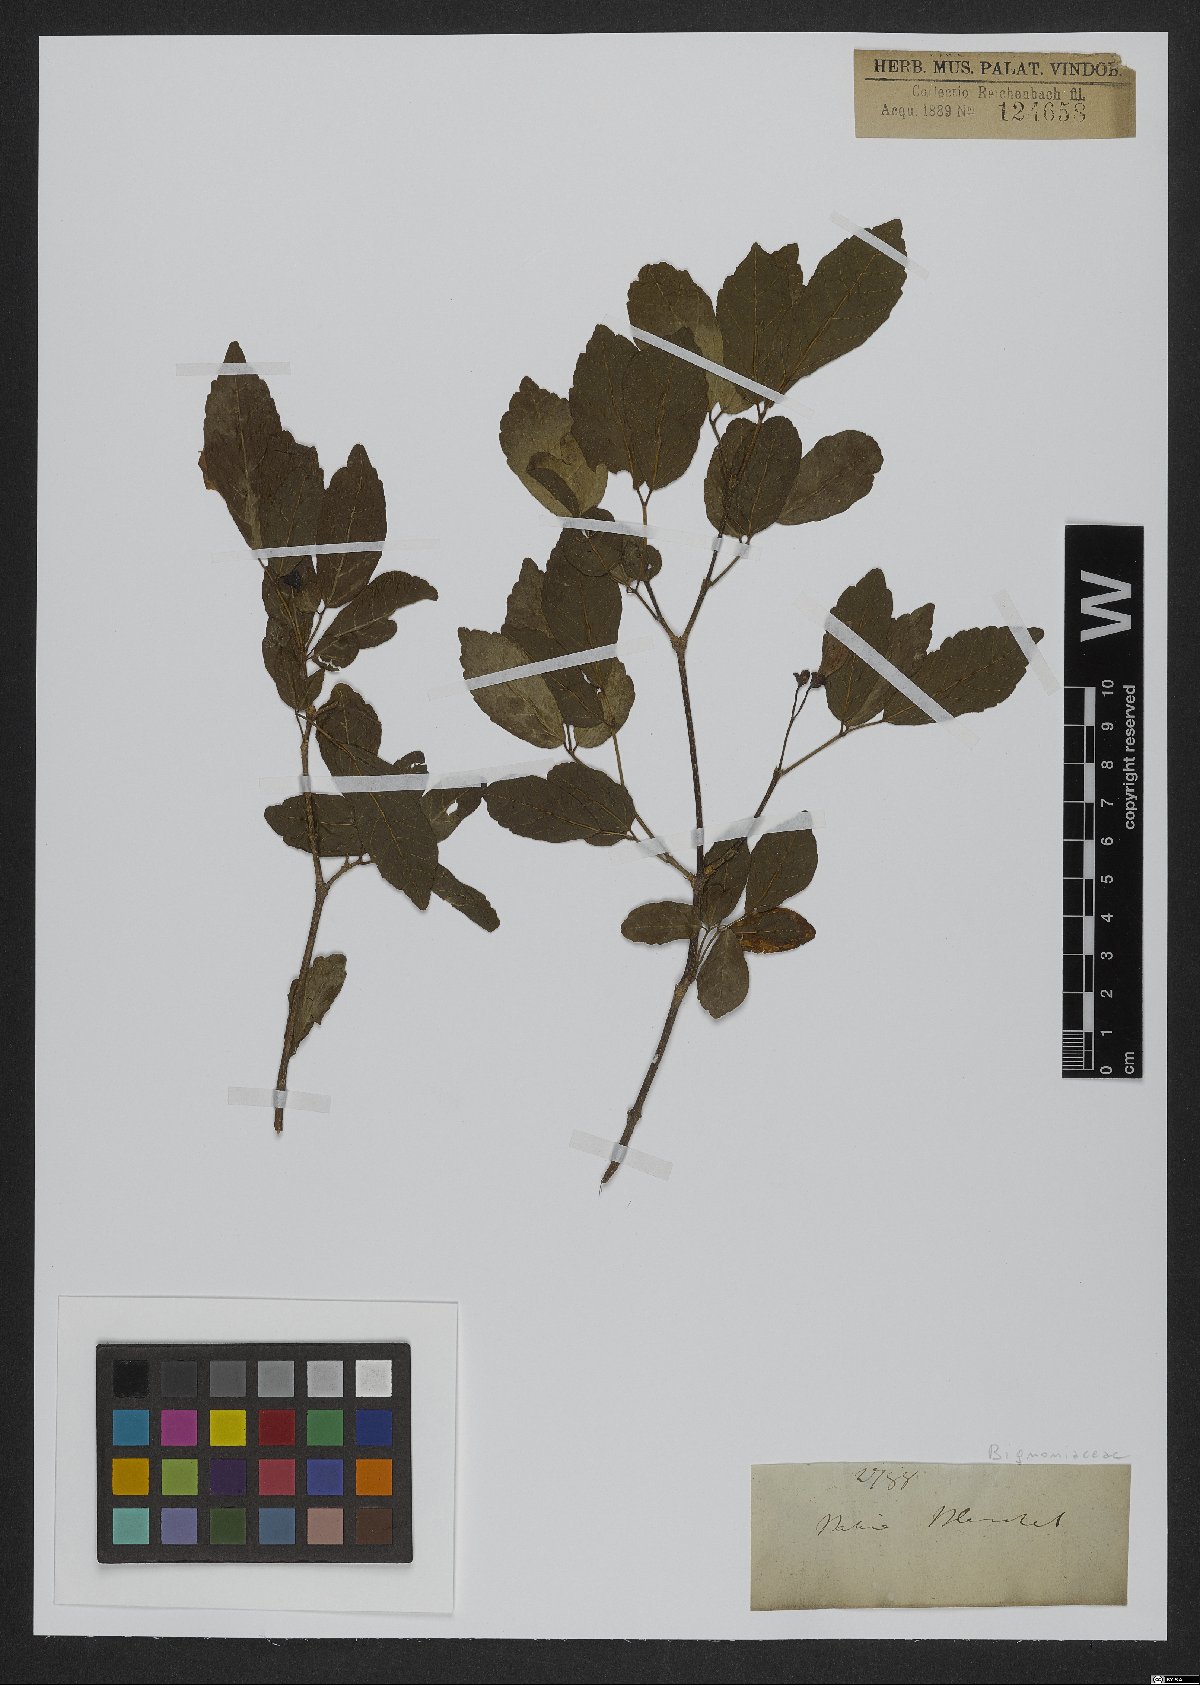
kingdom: Plantae
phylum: Tracheophyta
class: Magnoliopsida
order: Lamiales
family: Bignoniaceae
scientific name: Bignoniaceae
